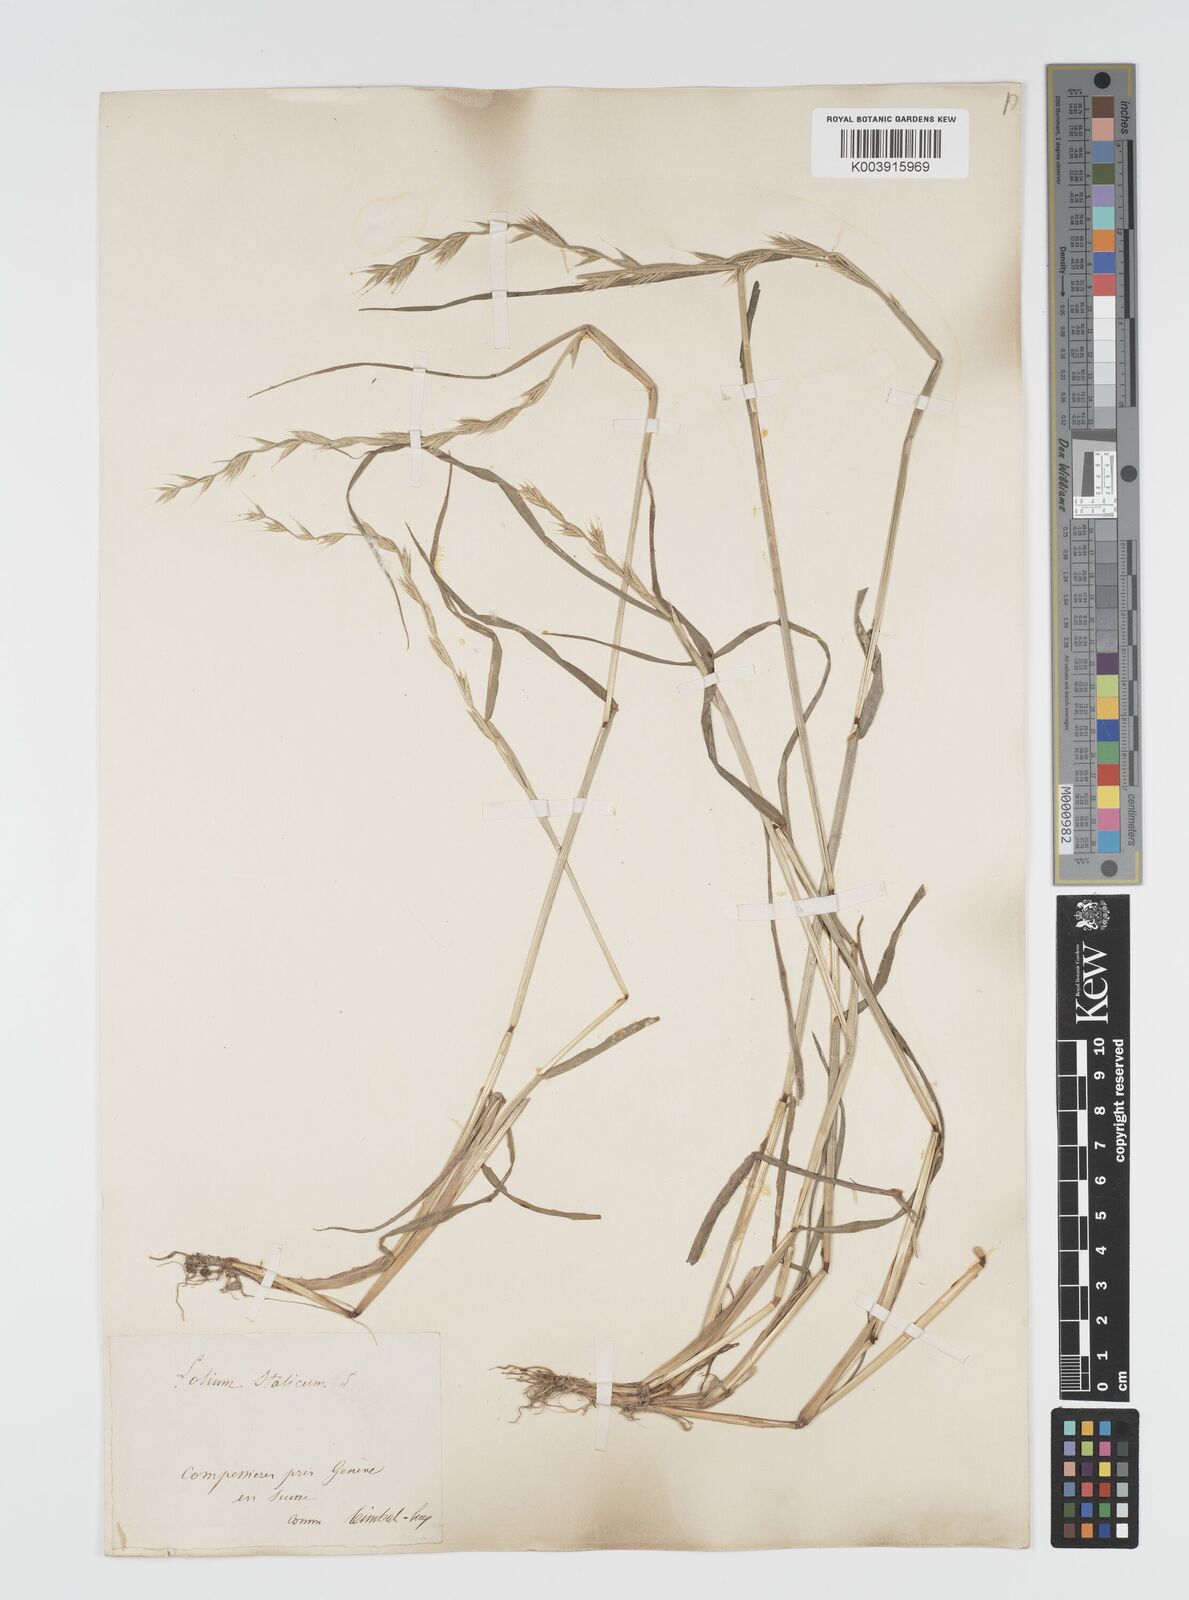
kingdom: Plantae
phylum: Tracheophyta
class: Liliopsida
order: Poales
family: Poaceae
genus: Lolium
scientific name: Lolium multiflorum
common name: Annual ryegrass
